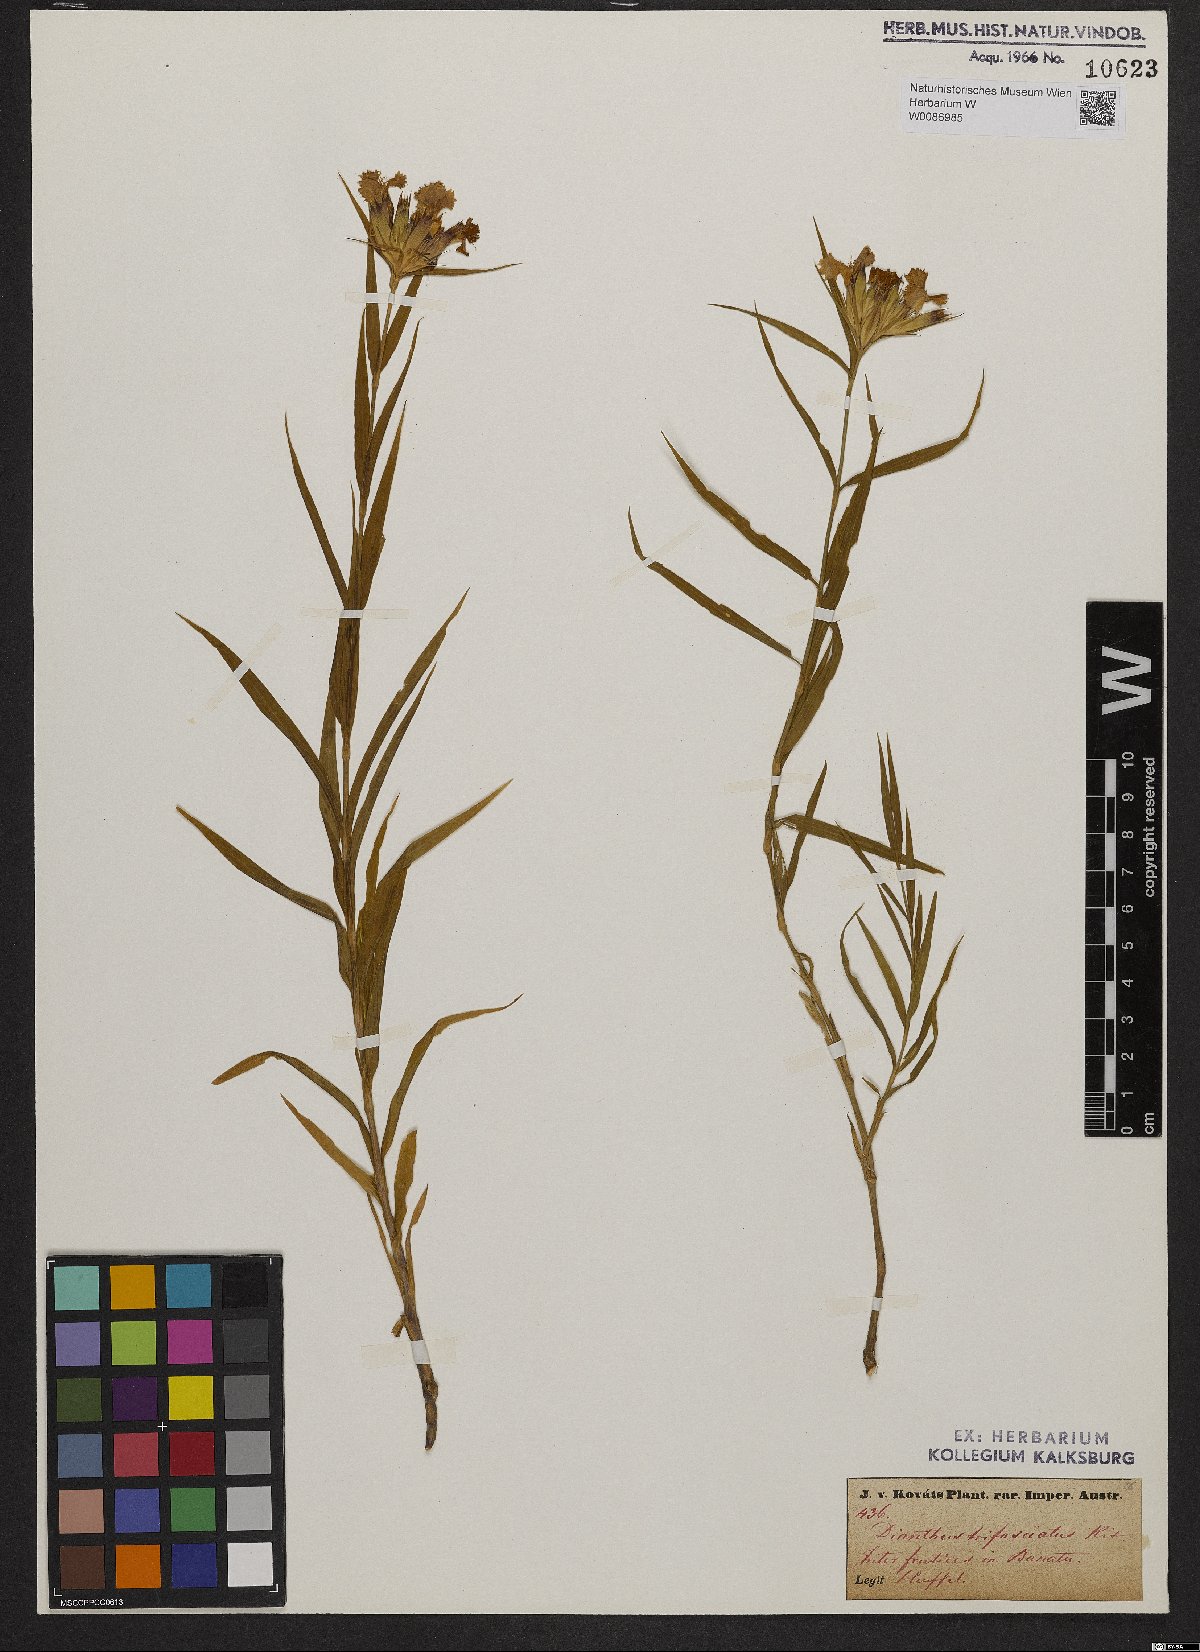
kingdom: Plantae
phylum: Tracheophyta
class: Magnoliopsida
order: Caryophyllales
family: Caryophyllaceae
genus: Dianthus
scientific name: Dianthus trifasciculatus
